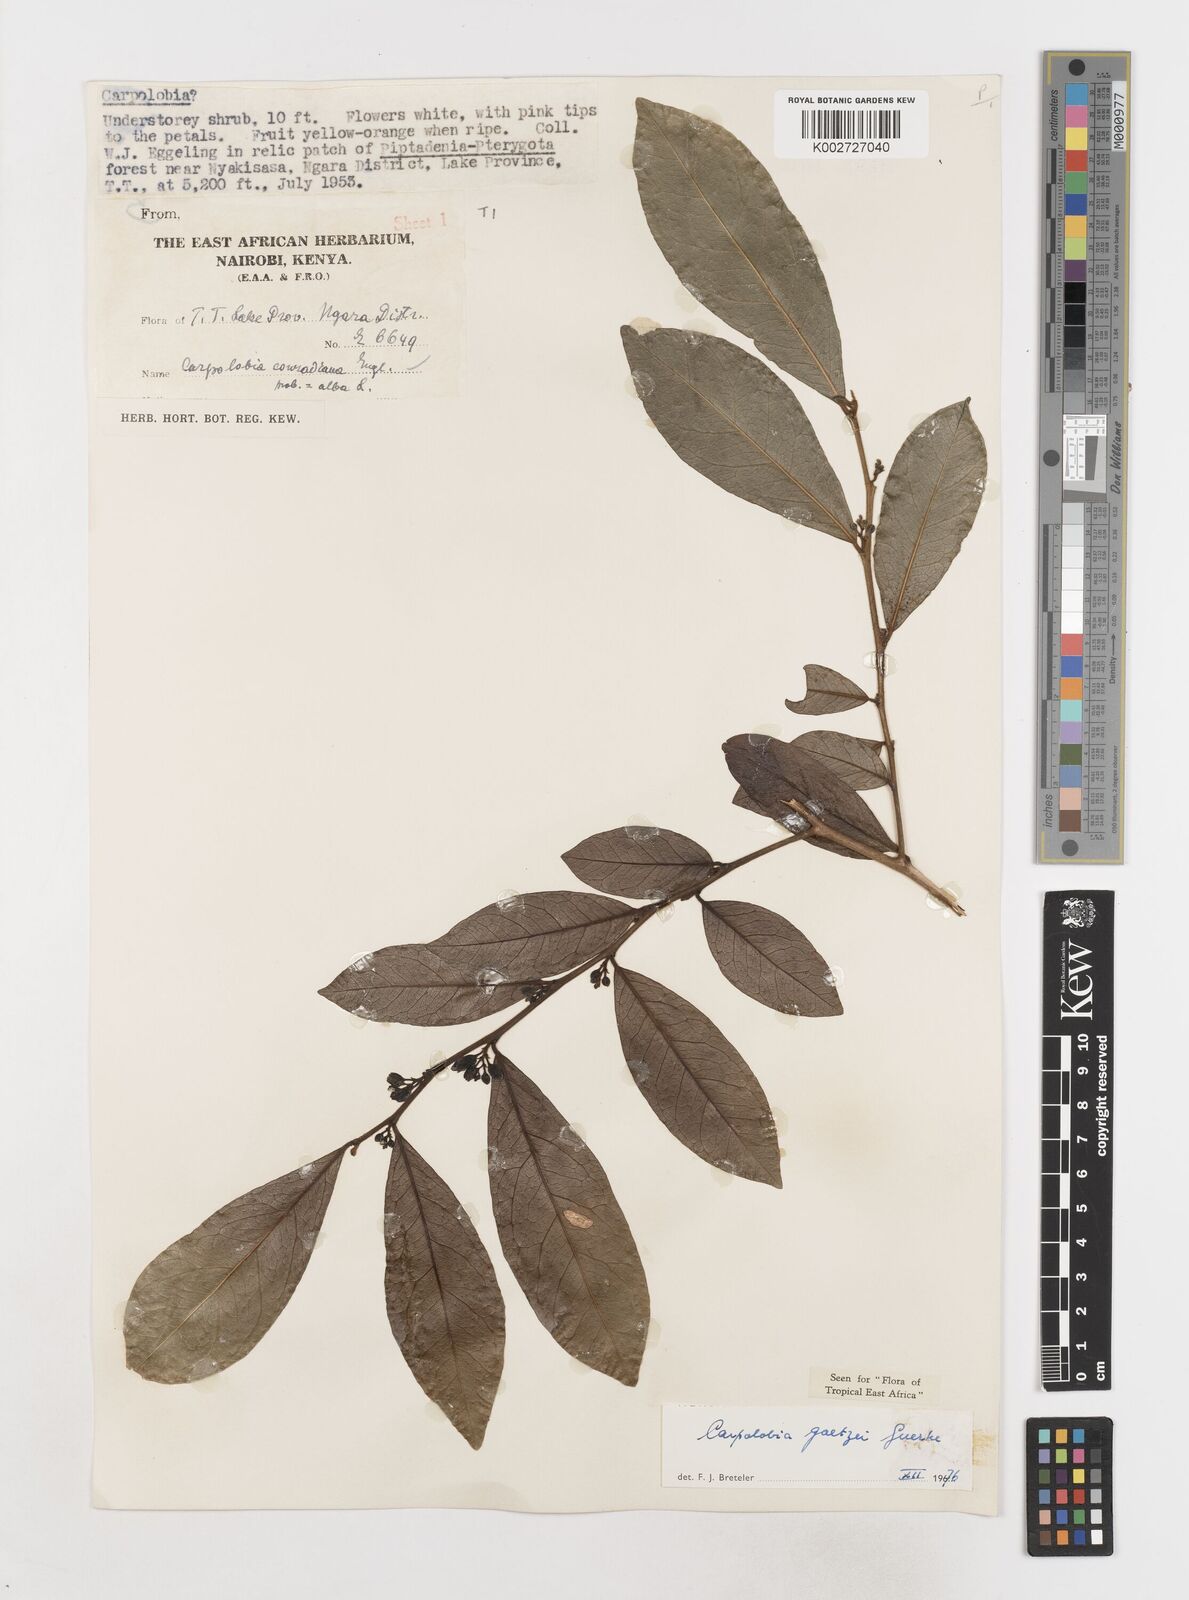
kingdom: Plantae
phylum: Tracheophyta
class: Magnoliopsida
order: Fabales
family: Polygalaceae
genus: Carpolobia
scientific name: Carpolobia goetzei
